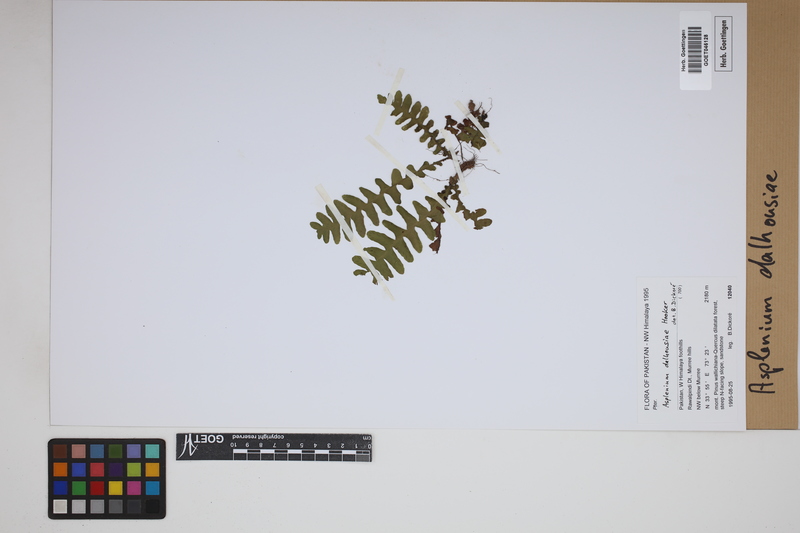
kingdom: Plantae
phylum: Tracheophyta
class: Polypodiopsida
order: Polypodiales
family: Aspleniaceae
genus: Asplenium
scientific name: Asplenium dalhousieae
